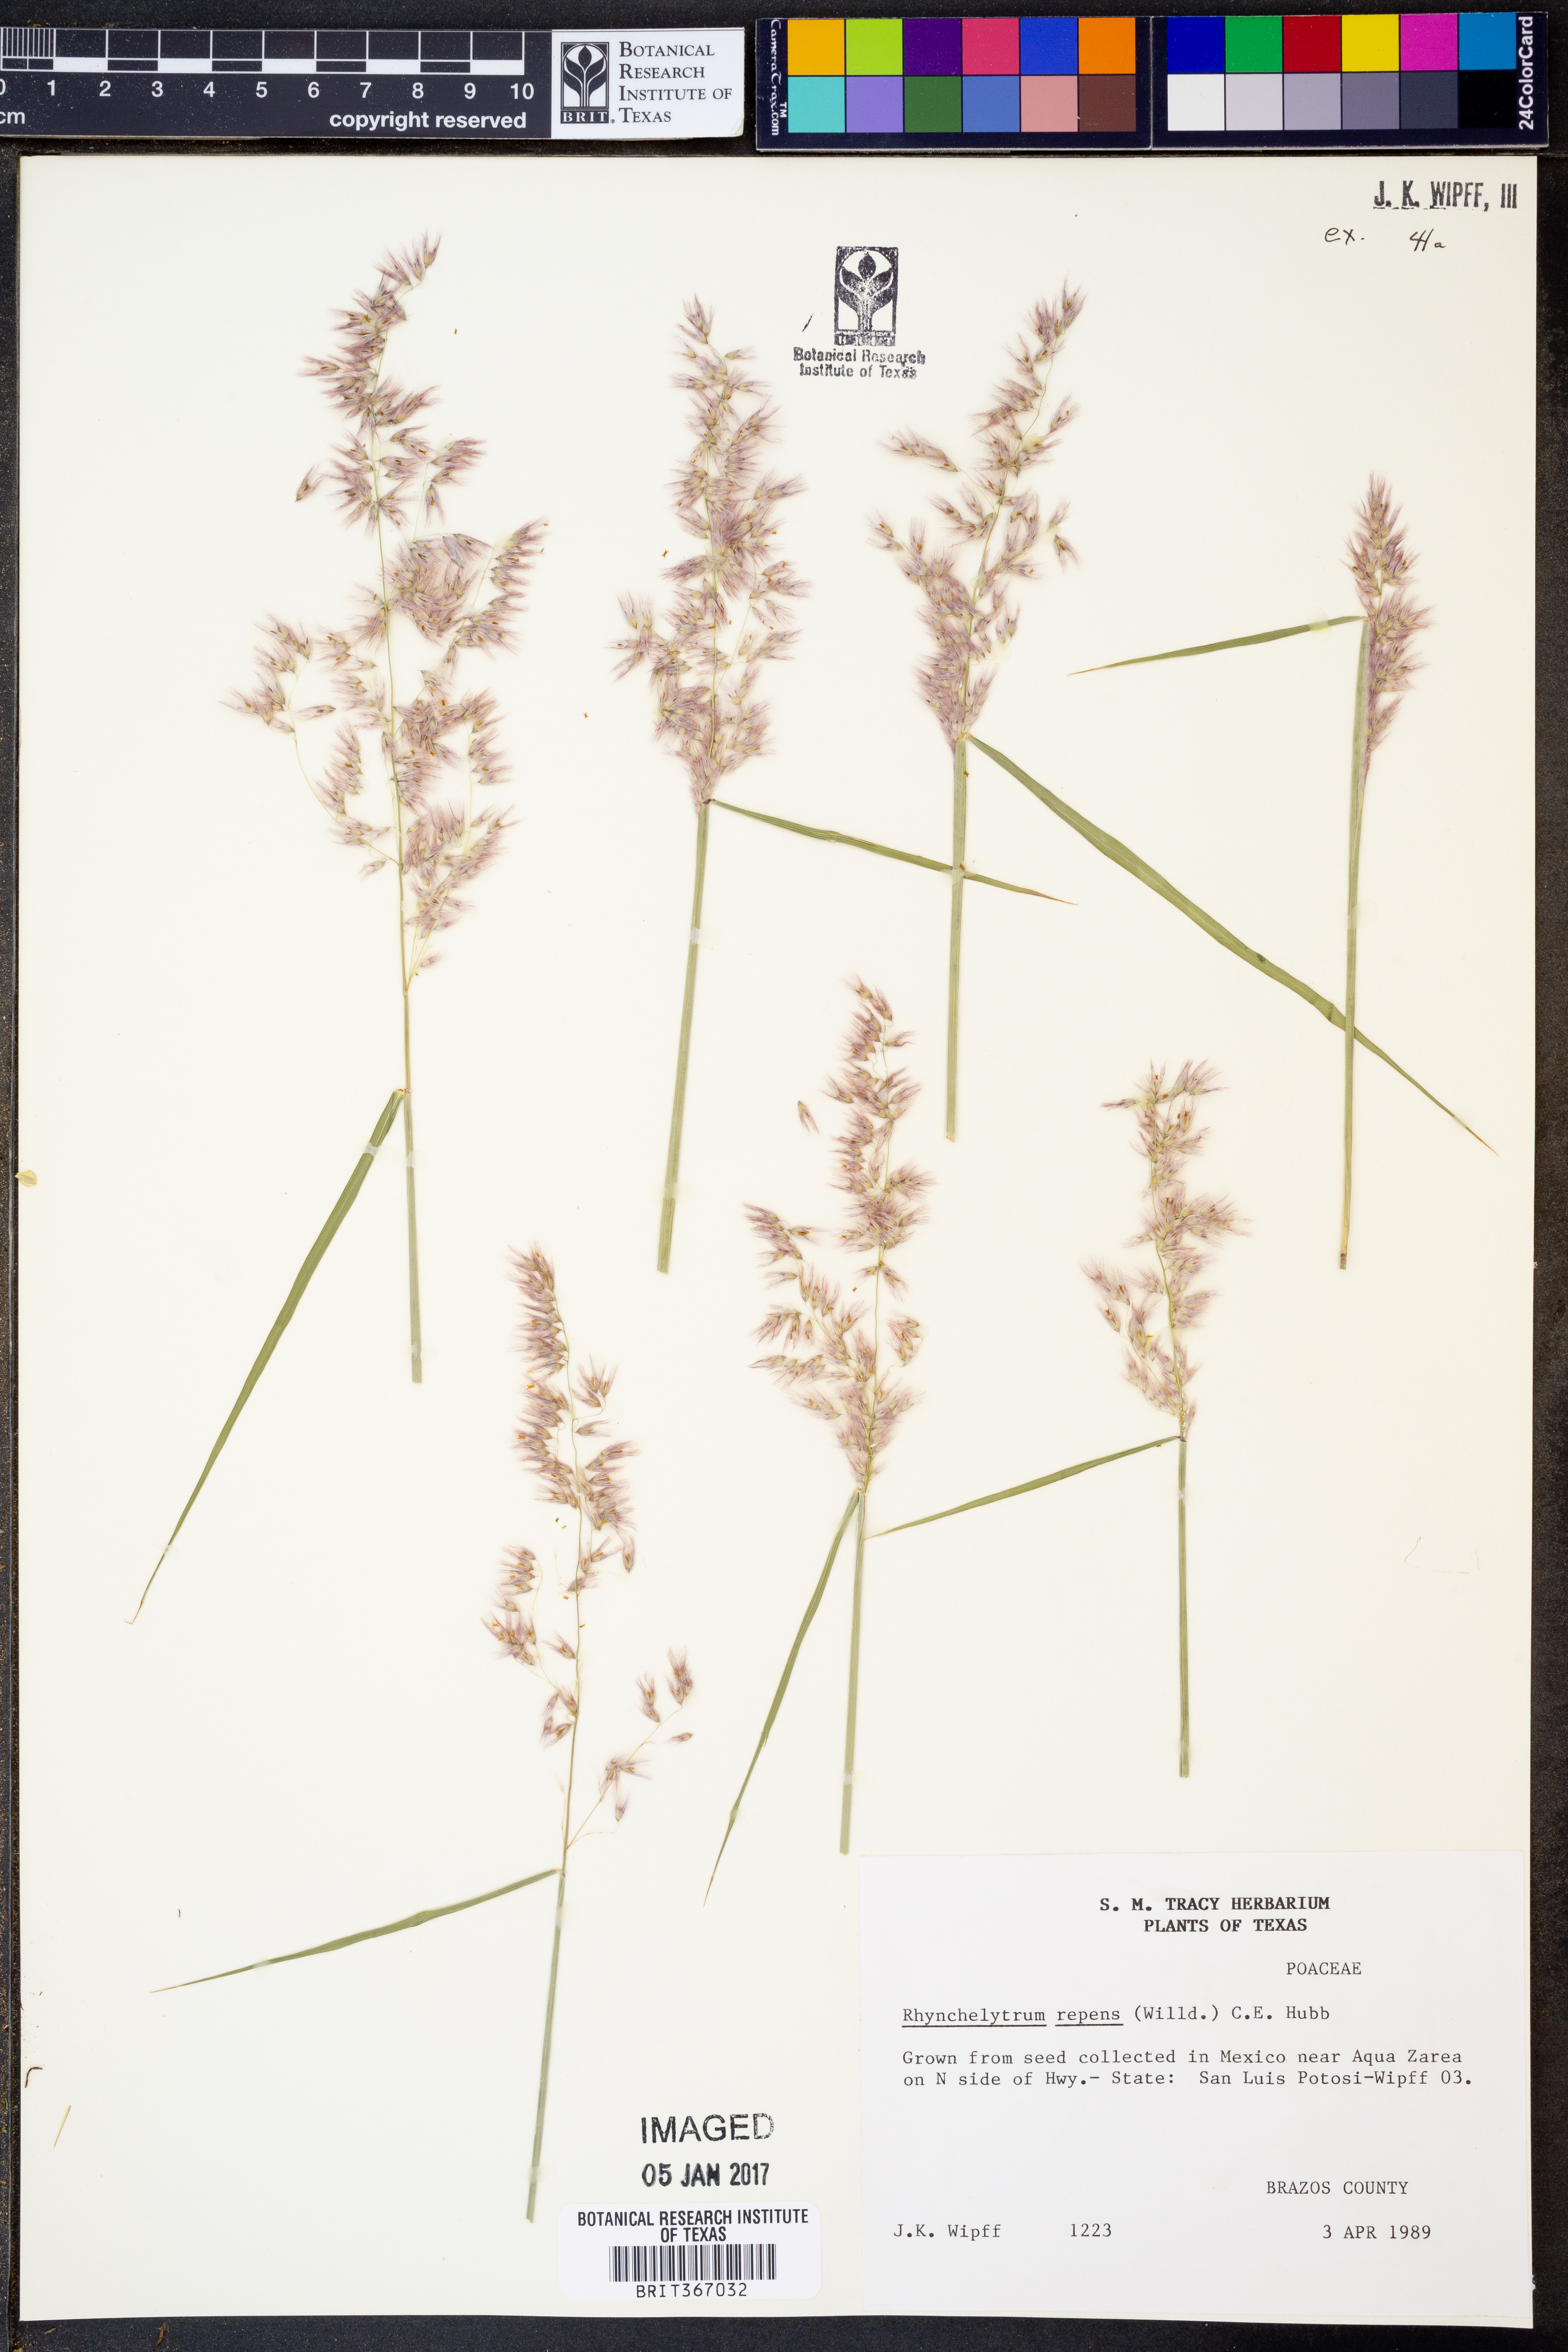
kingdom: Plantae
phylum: Tracheophyta
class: Liliopsida
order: Poales
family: Poaceae
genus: Melinis
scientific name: Melinis repens
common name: Rose natal grass
